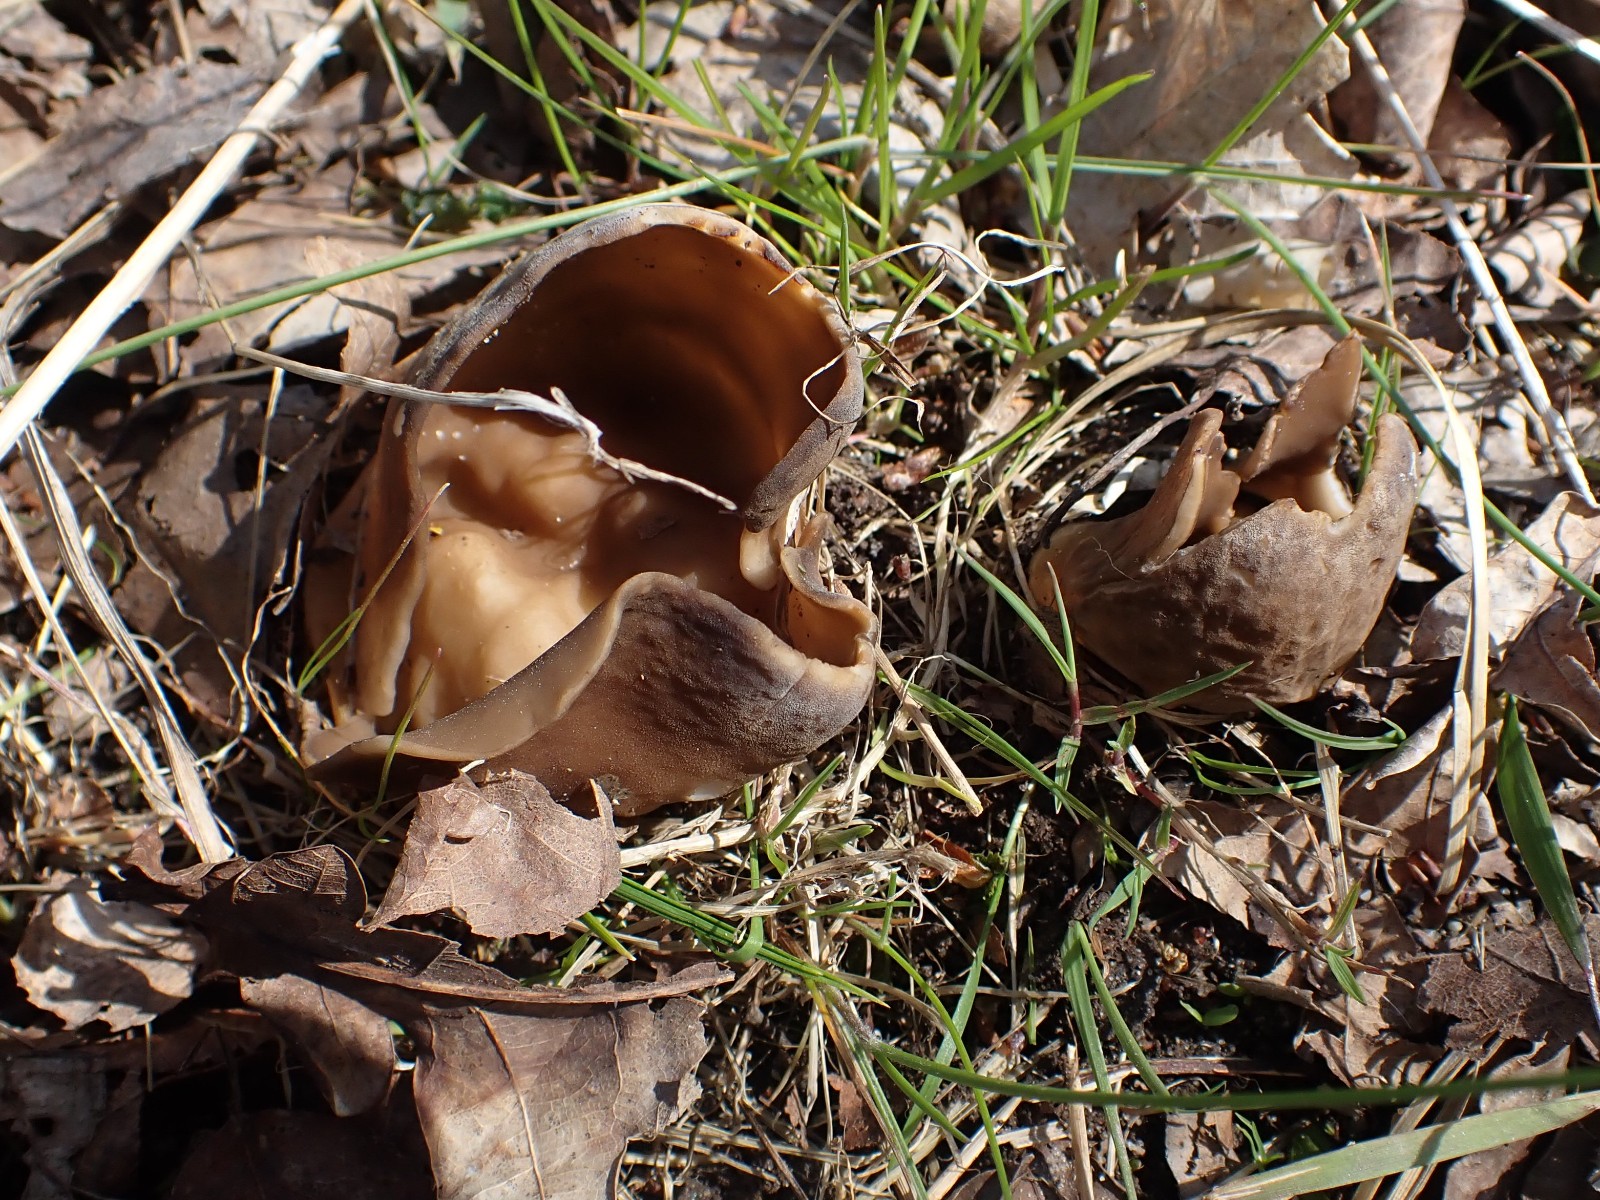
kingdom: Fungi
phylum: Ascomycota
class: Pezizomycetes
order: Pezizales
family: Helvellaceae
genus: Helvella
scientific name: Helvella acetabulum
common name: pokal-foldhat
